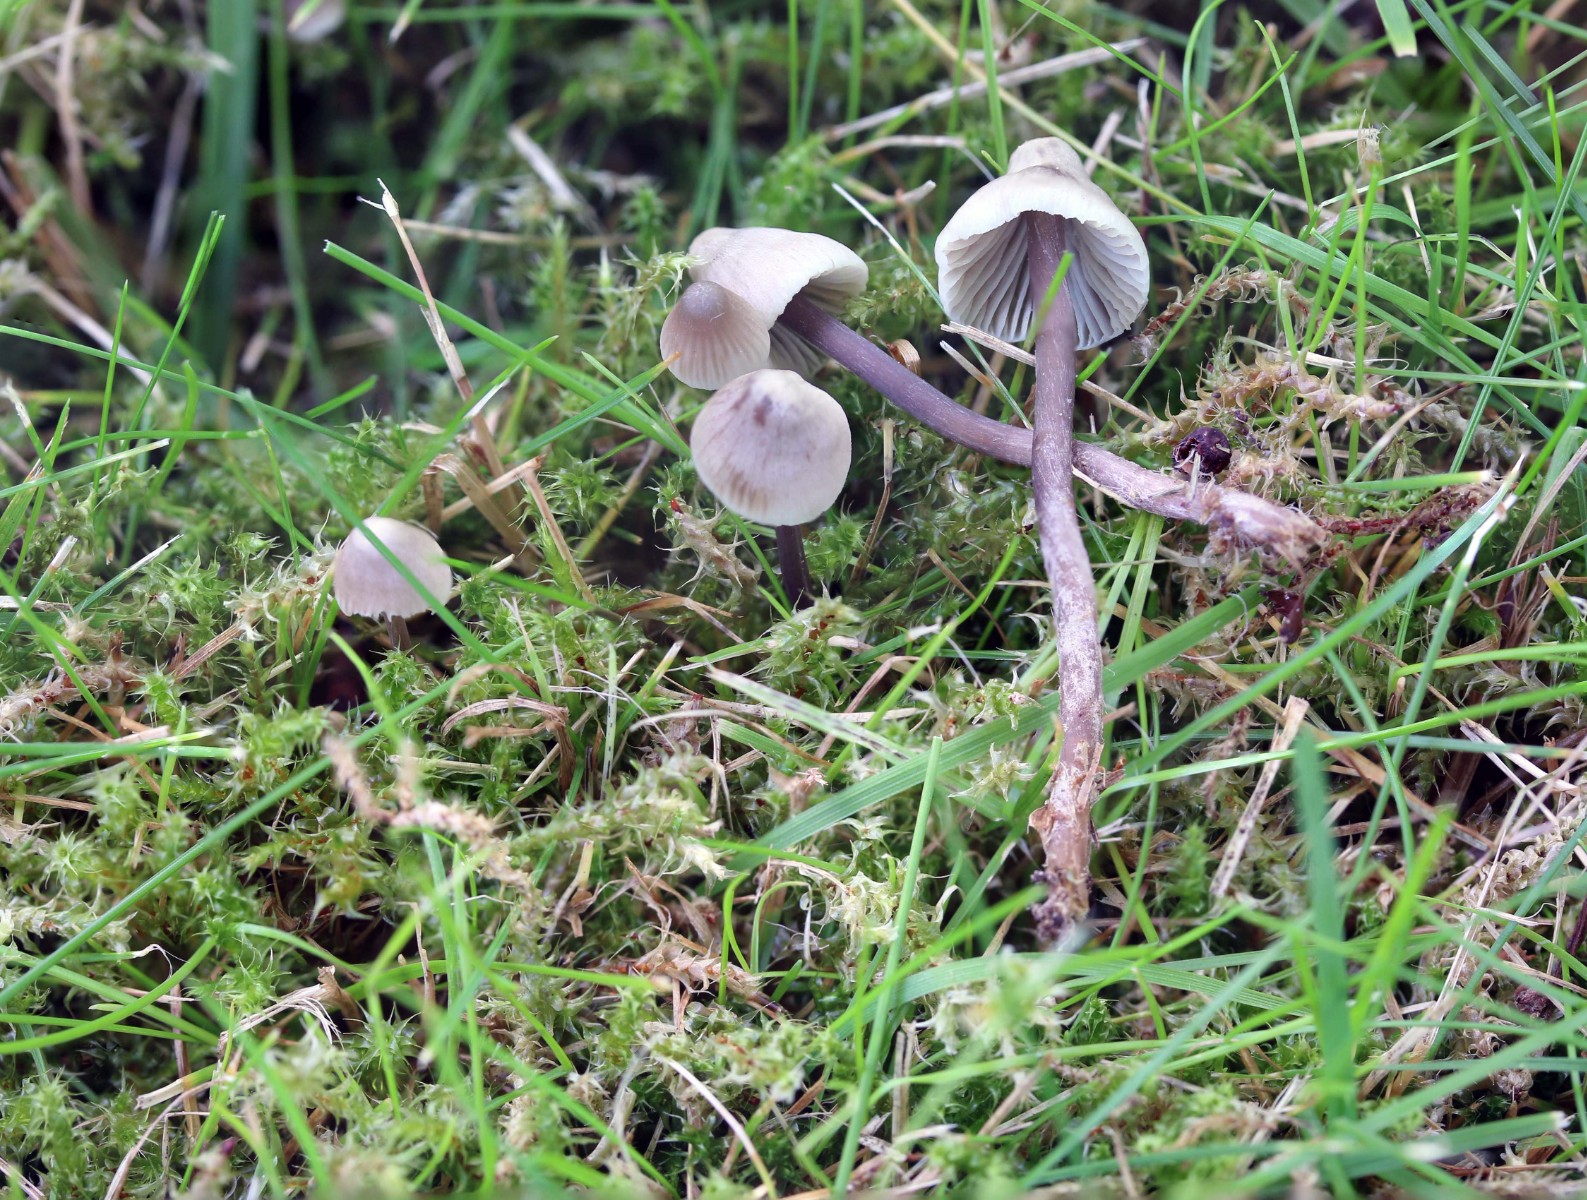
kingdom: Fungi
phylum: Basidiomycota
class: Agaricomycetes
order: Agaricales
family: Mycenaceae
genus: Mycena
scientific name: Mycena aetites
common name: plæne-huesvamp
